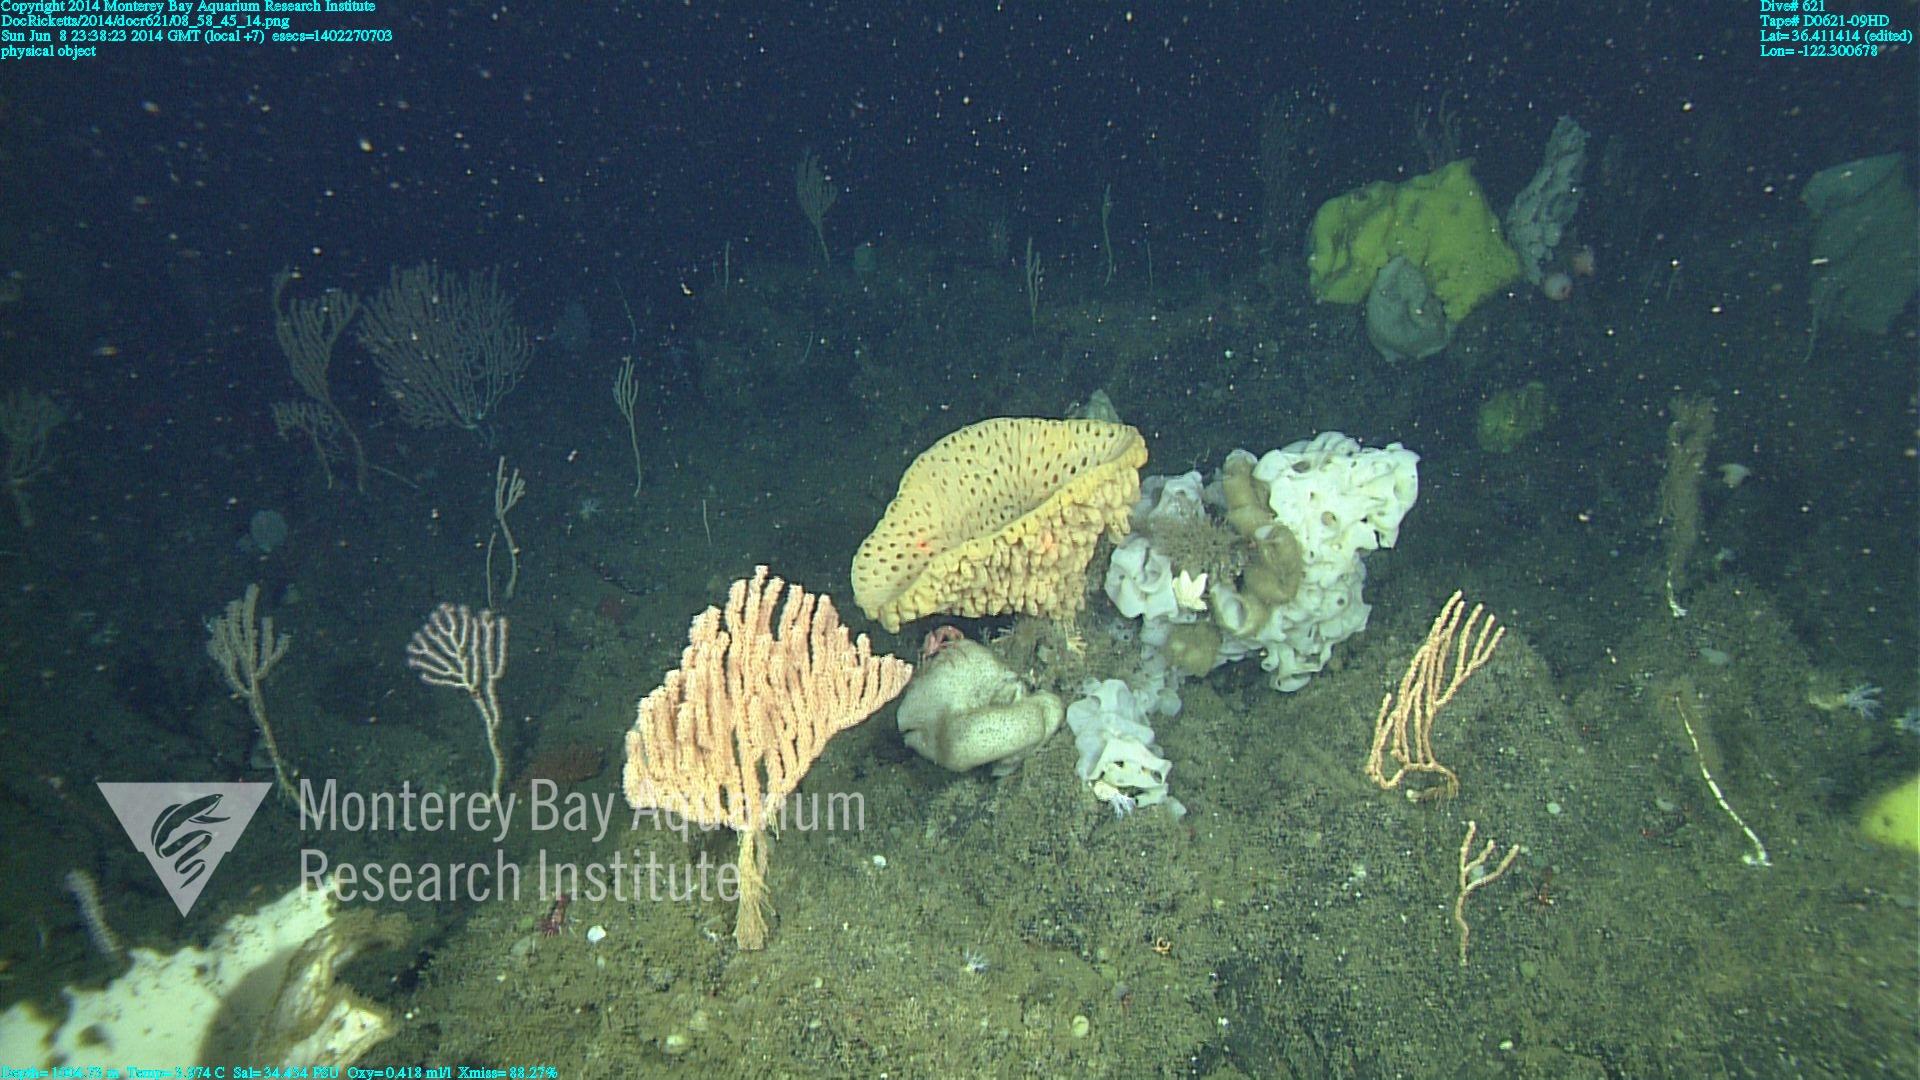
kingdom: Animalia
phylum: Cnidaria
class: Anthozoa
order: Scleralcyonacea
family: Keratoisididae
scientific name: Keratoisididae
